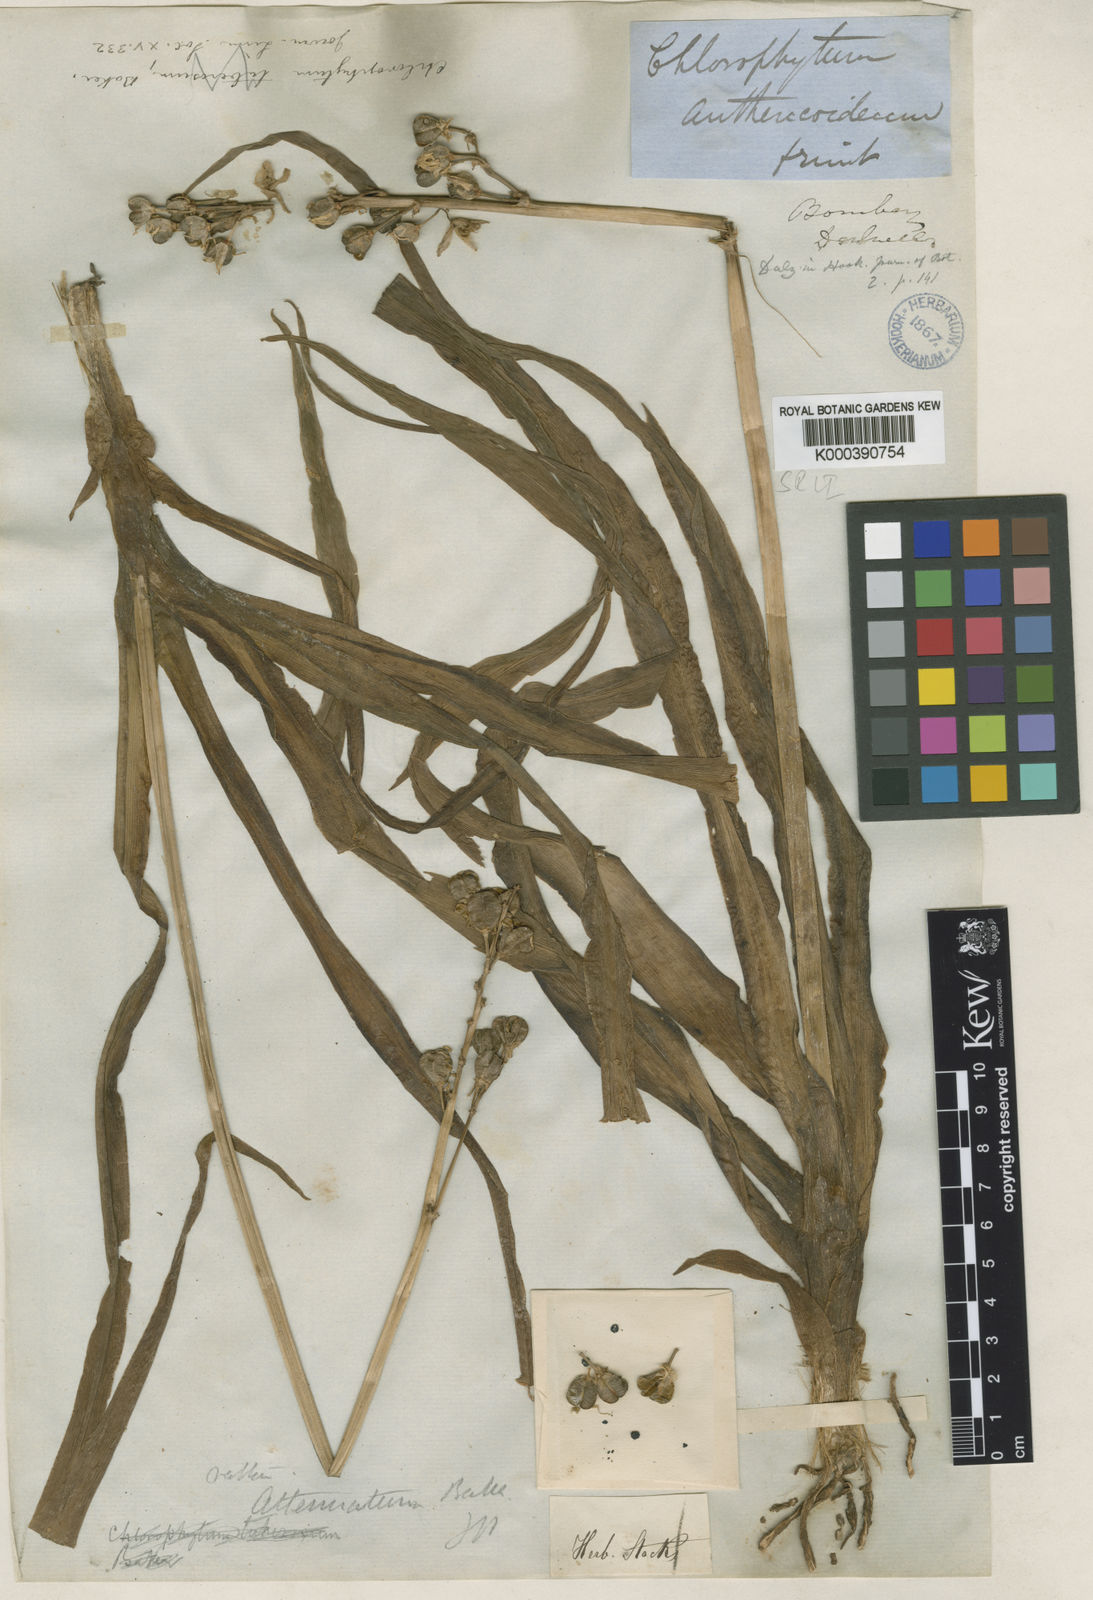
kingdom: Plantae
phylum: Tracheophyta
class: Liliopsida
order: Asparagales
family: Asparagaceae
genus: Chlorophytum
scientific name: Chlorophytum tuberosum
